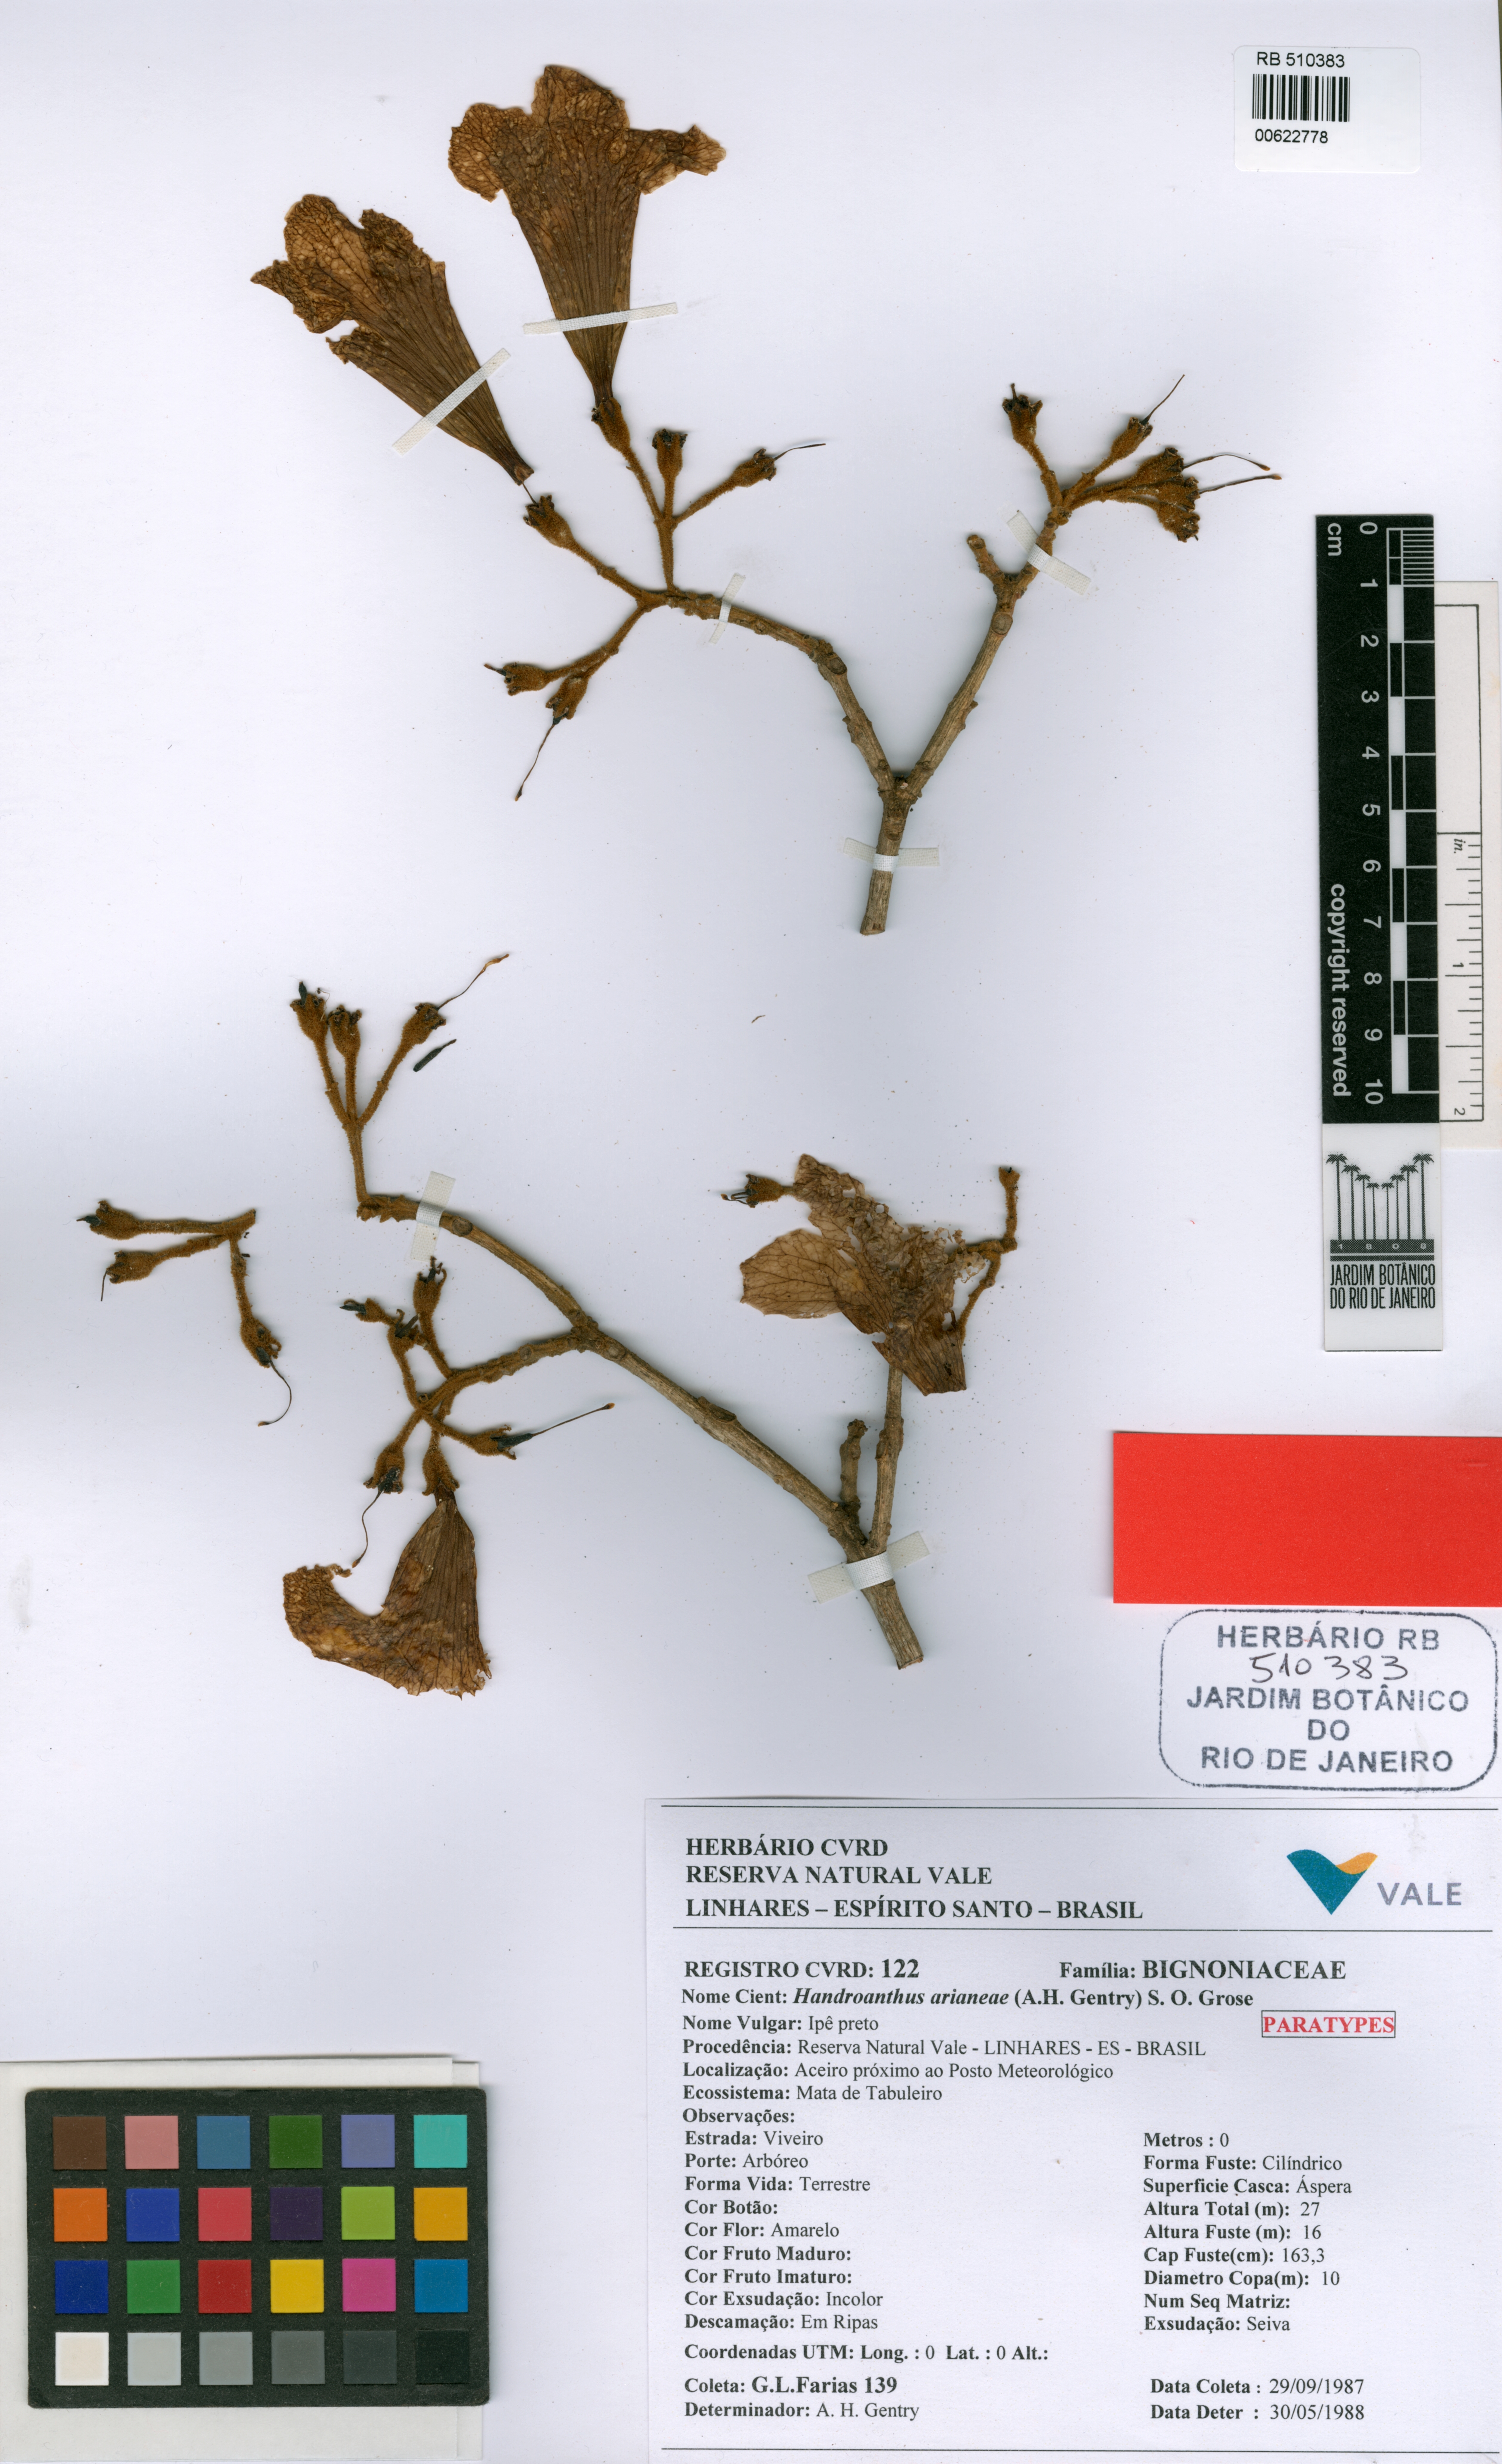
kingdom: Plantae
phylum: Tracheophyta
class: Magnoliopsida
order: Lamiales
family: Bignoniaceae
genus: Handroanthus
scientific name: Handroanthus arianeae
